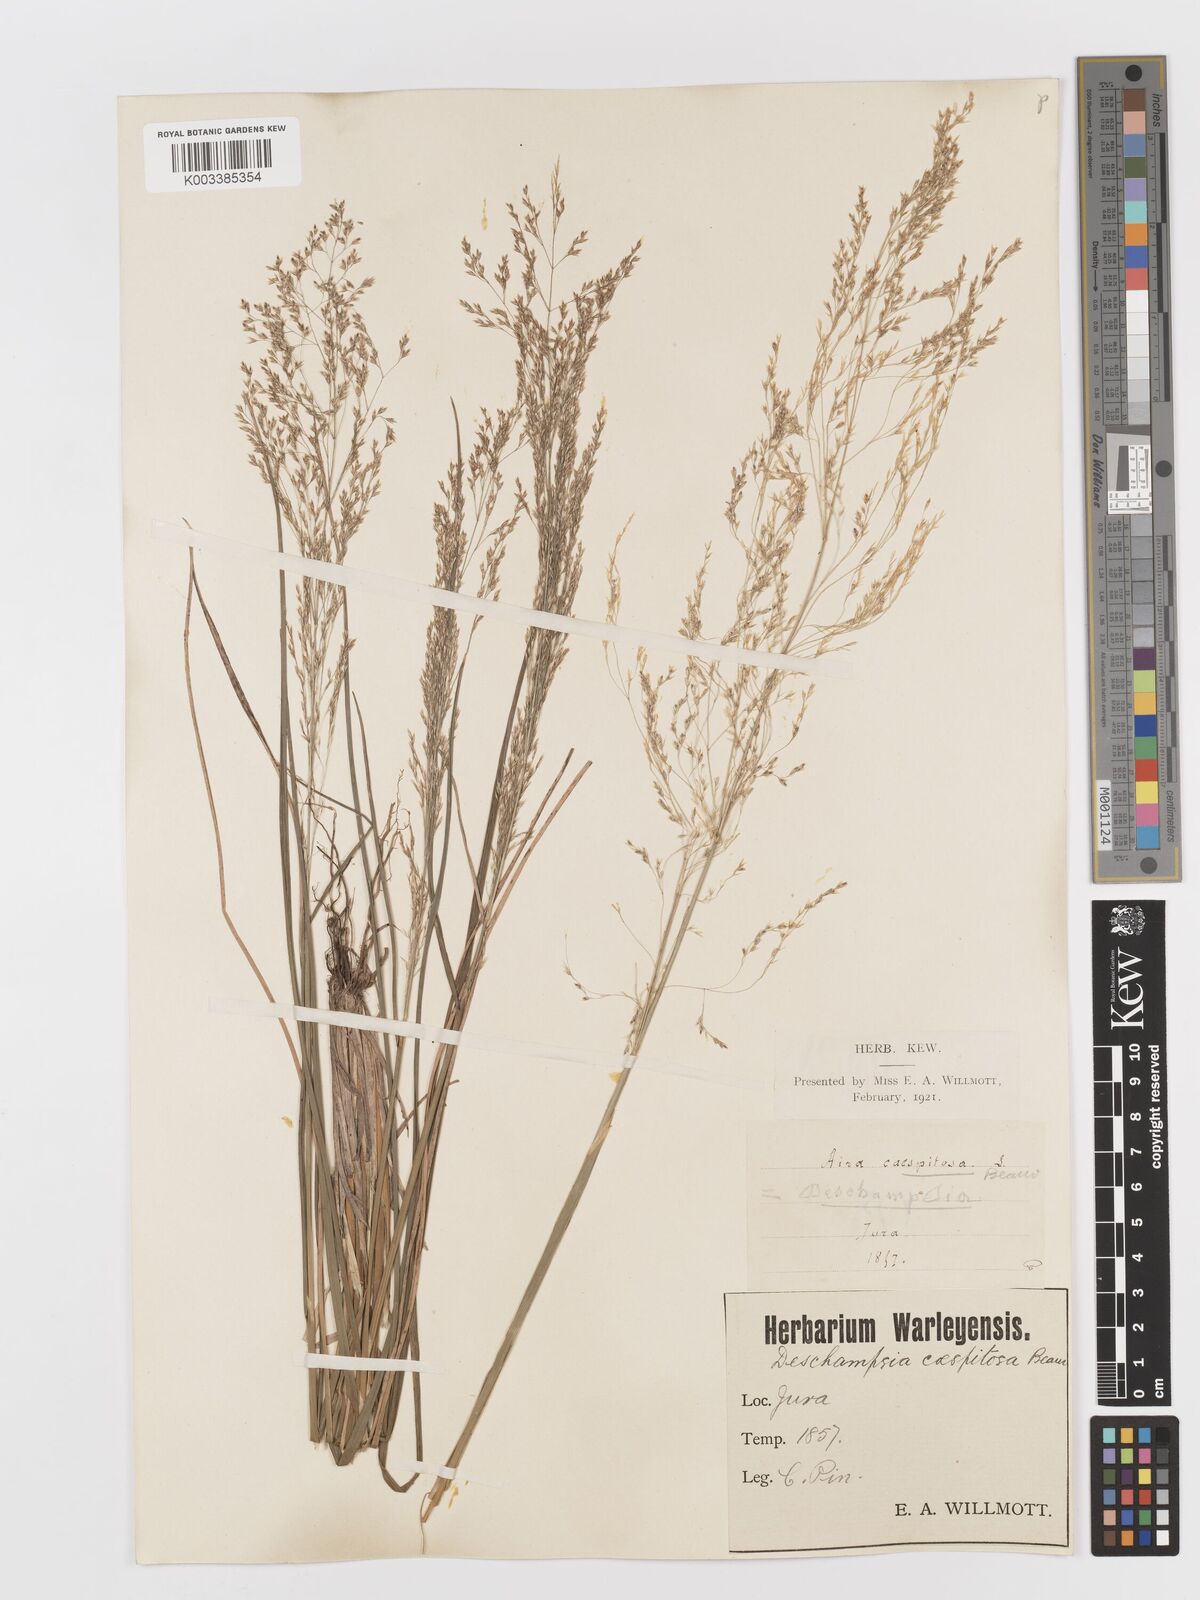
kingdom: Plantae
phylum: Tracheophyta
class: Liliopsida
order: Poales
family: Poaceae
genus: Deschampsia
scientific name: Deschampsia cespitosa
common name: Tufted hair-grass
